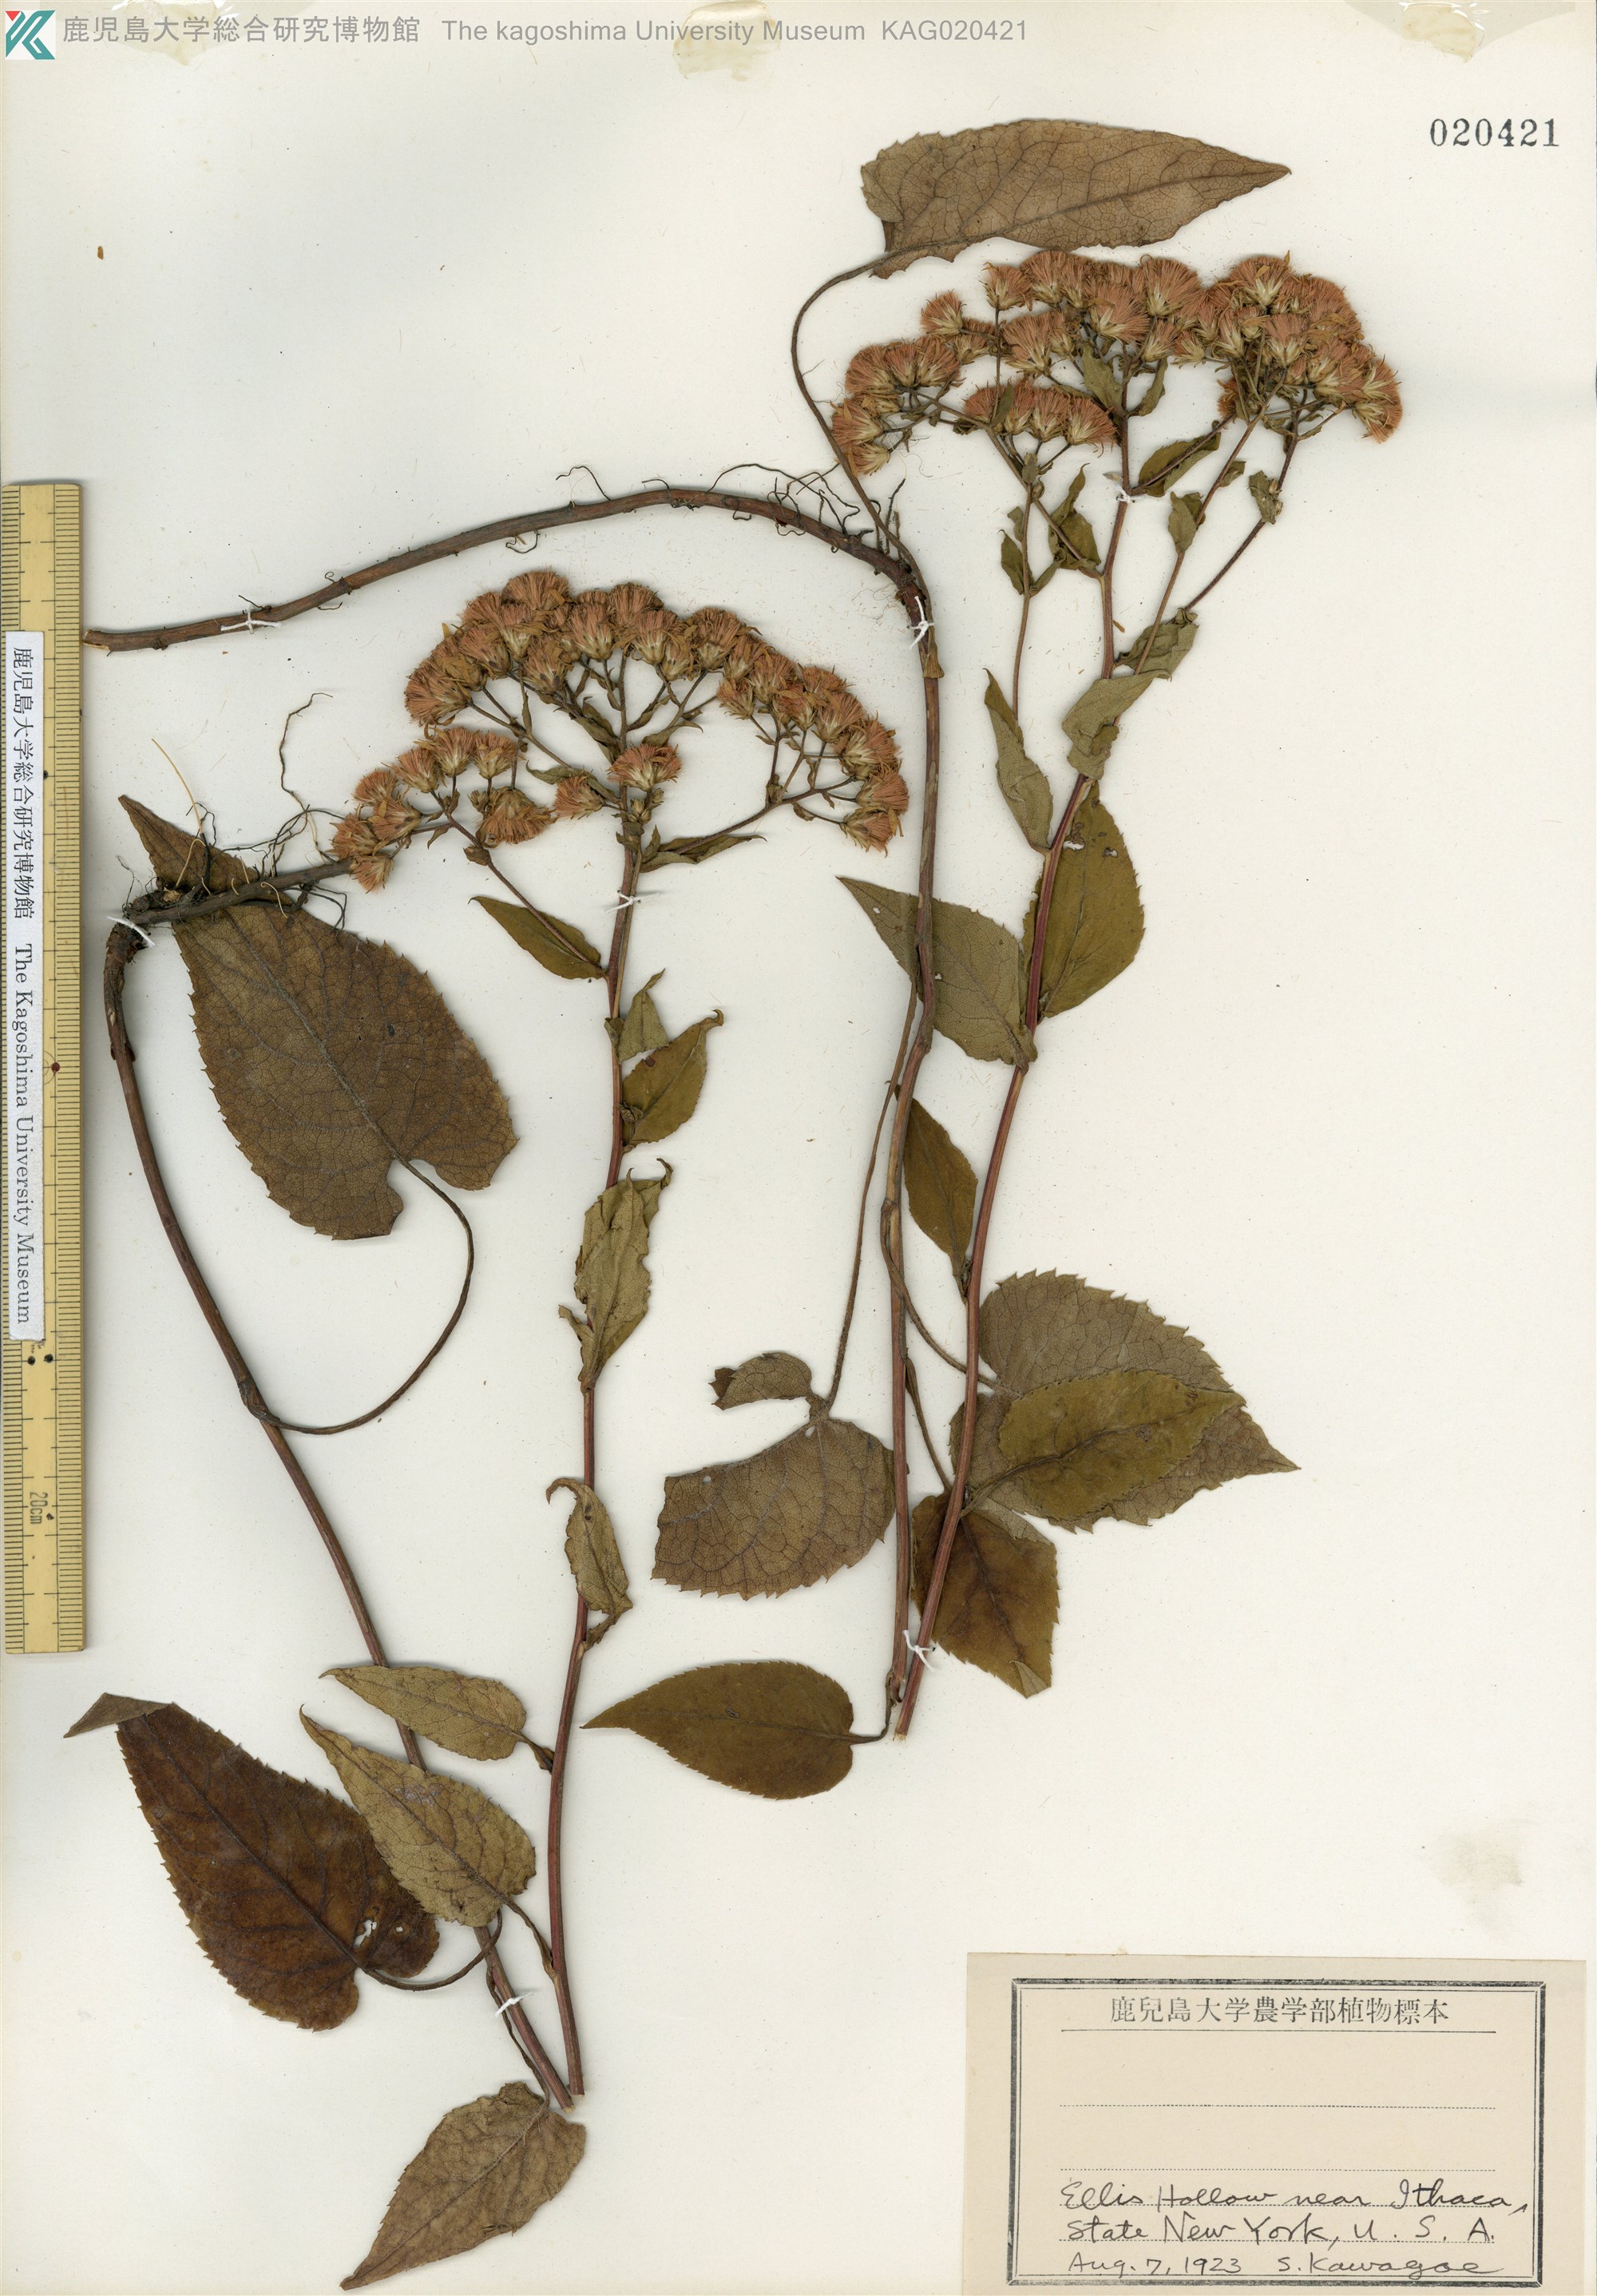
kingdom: Plantae
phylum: Tracheophyta
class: Magnoliopsida
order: Asterales
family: Asteraceae
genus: Eurybia
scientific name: Eurybia schreberi
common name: Schreber's aster
